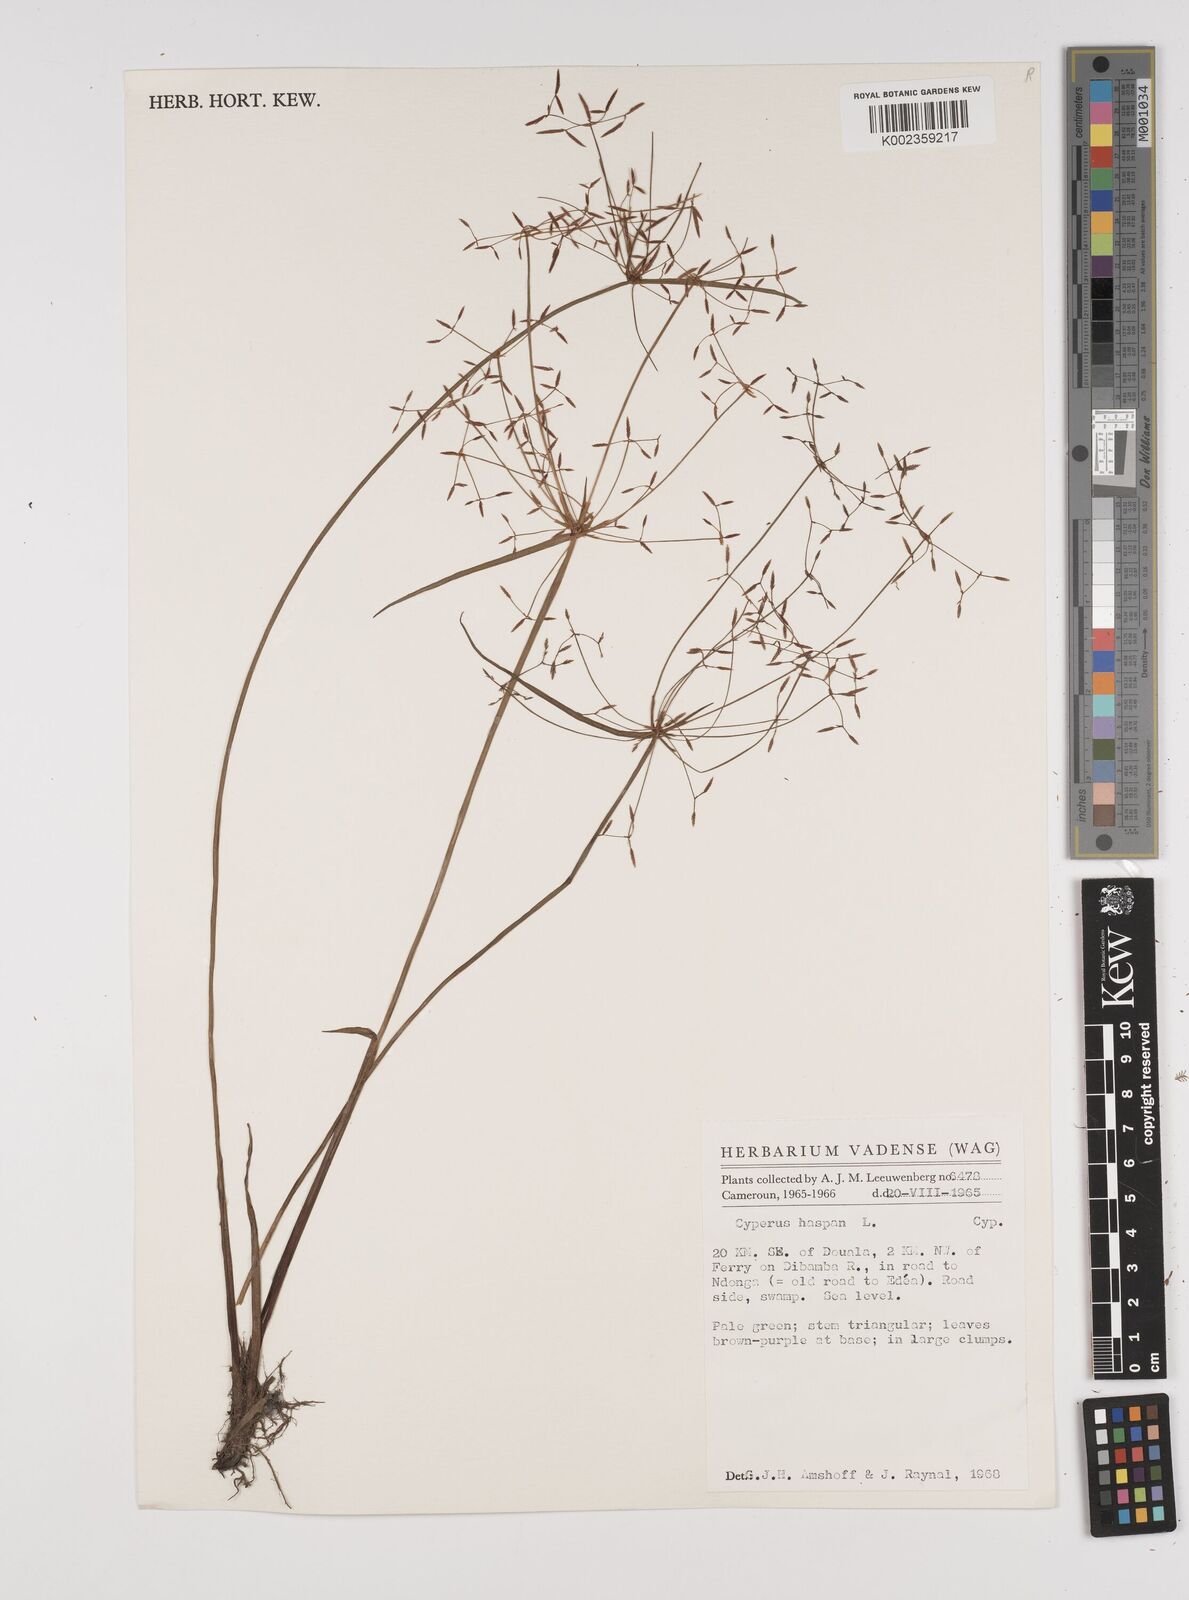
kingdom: Plantae
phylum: Tracheophyta
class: Liliopsida
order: Poales
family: Cyperaceae
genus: Cyperus
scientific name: Cyperus haspan
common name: Haspan flatsedge
